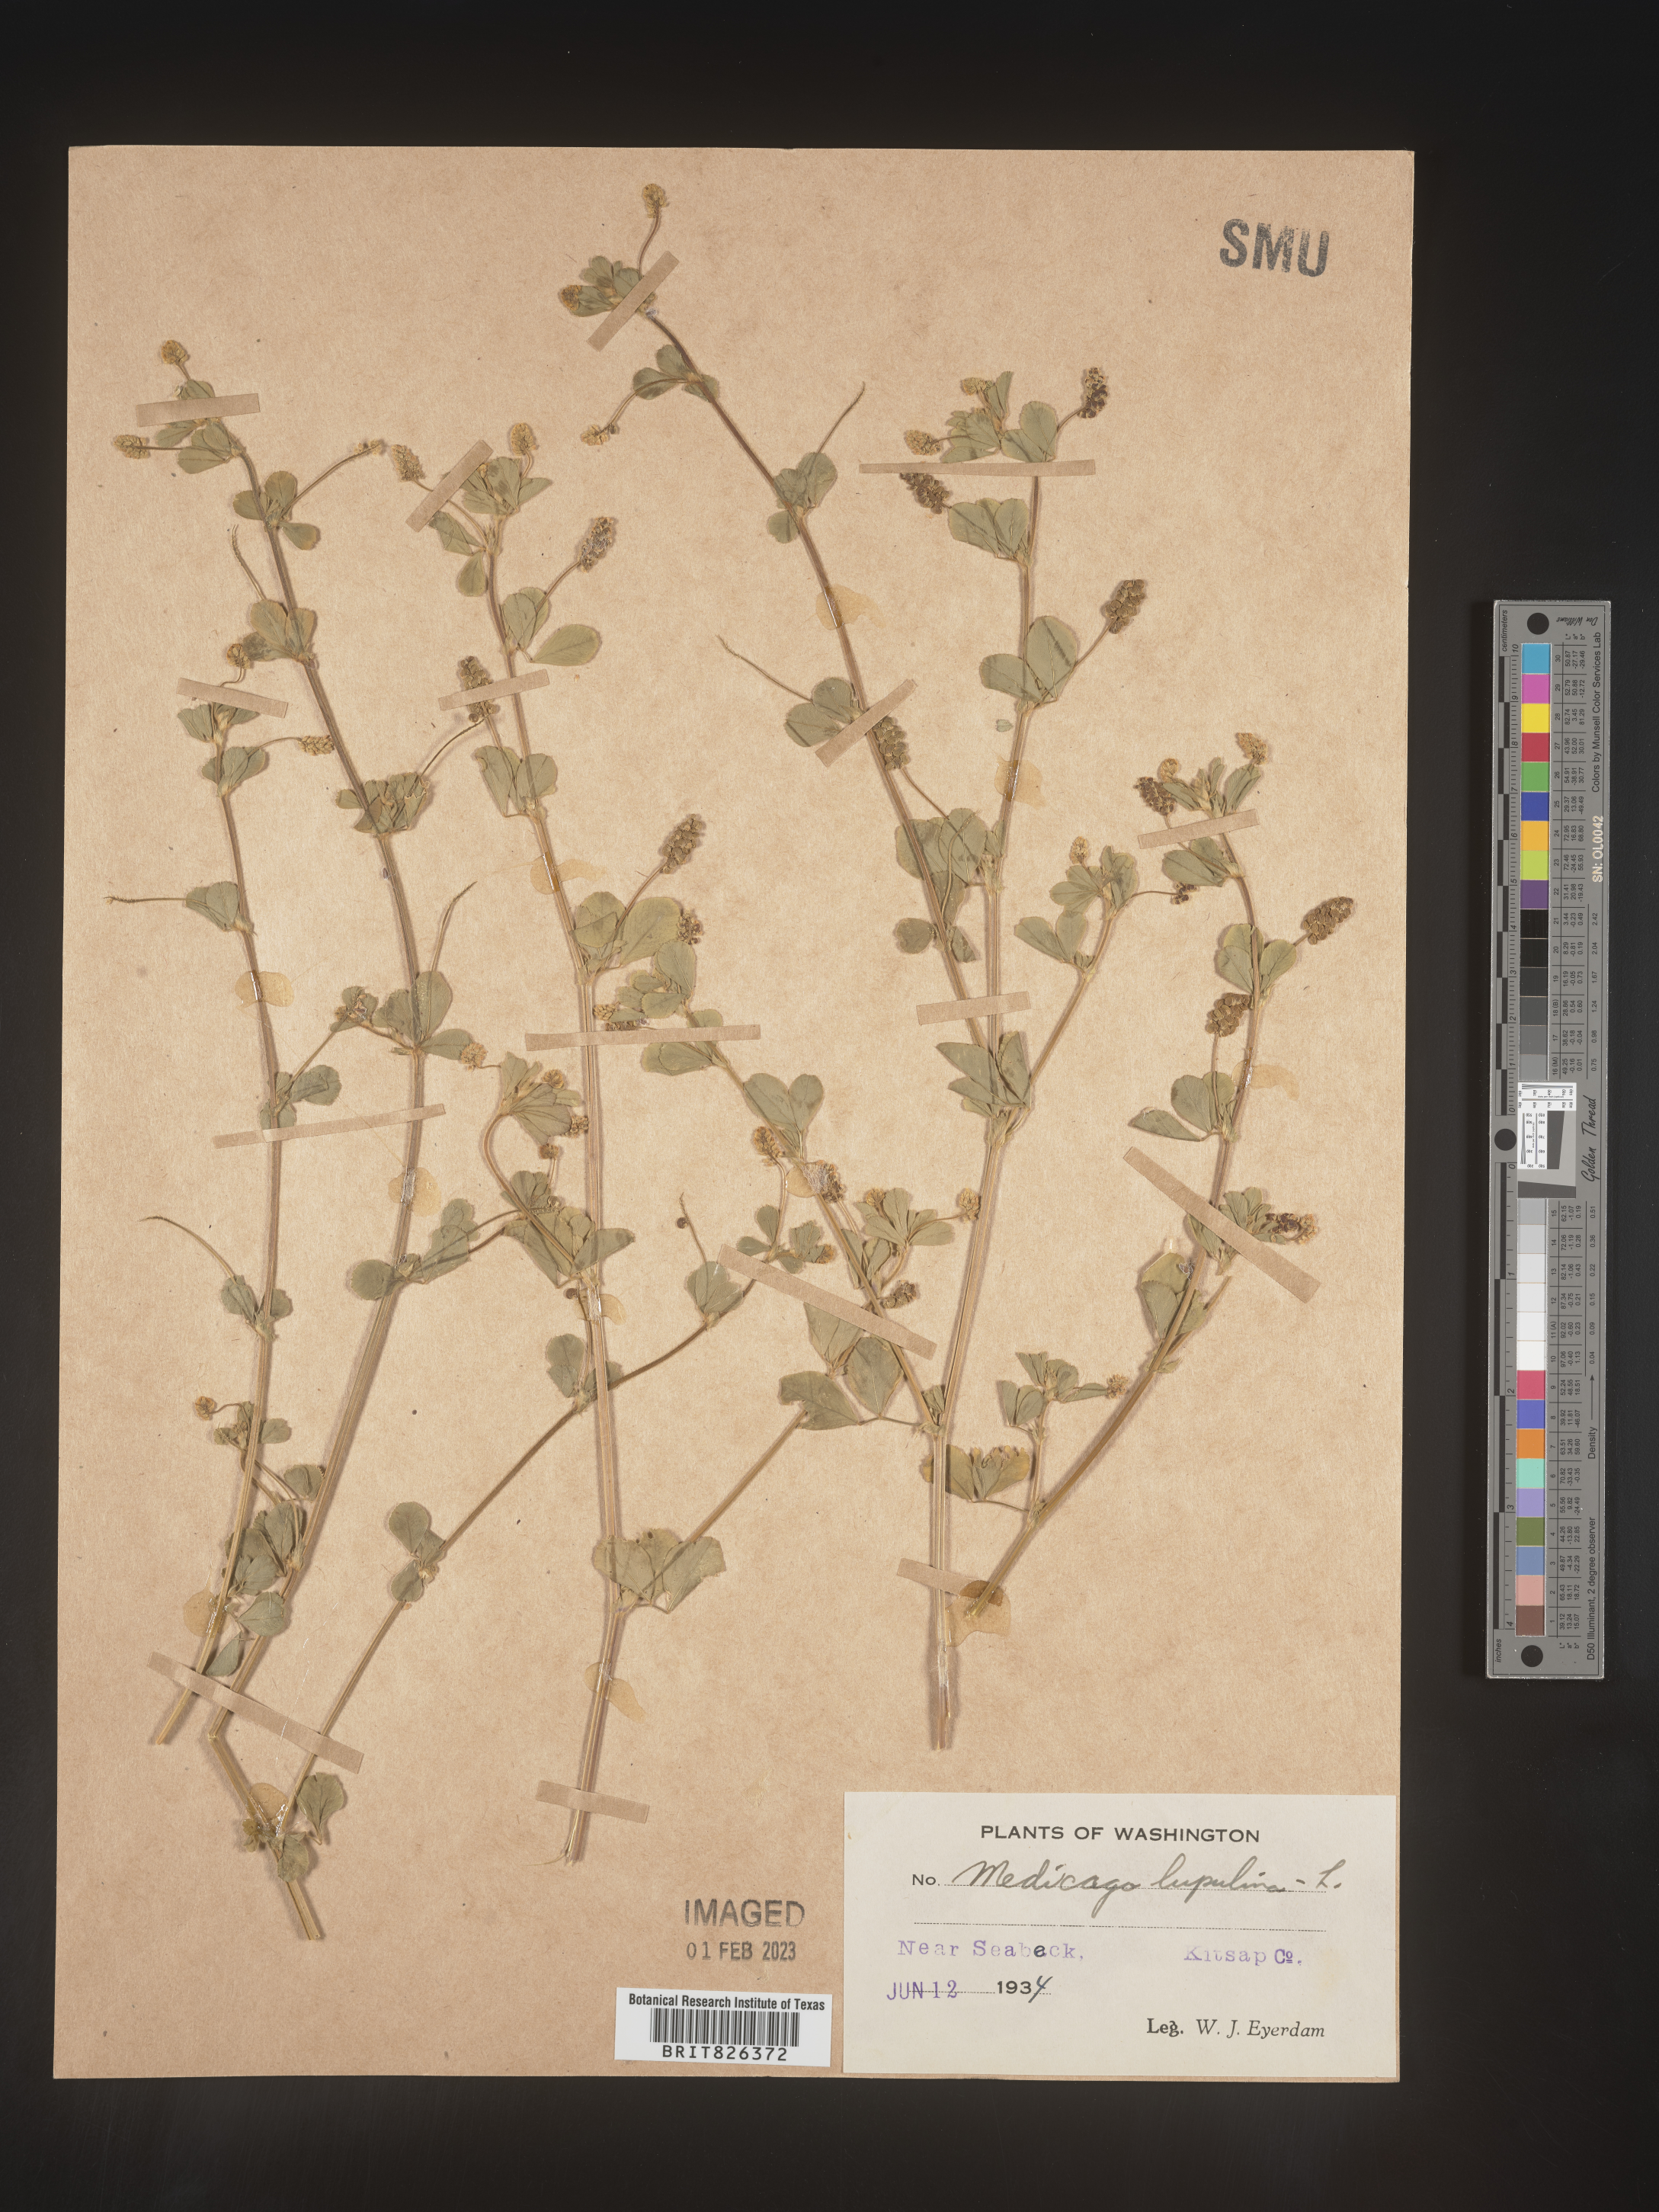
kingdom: Plantae
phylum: Tracheophyta
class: Magnoliopsida
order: Fabales
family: Fabaceae
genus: Medicago
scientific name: Medicago lupulina
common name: Black medick
